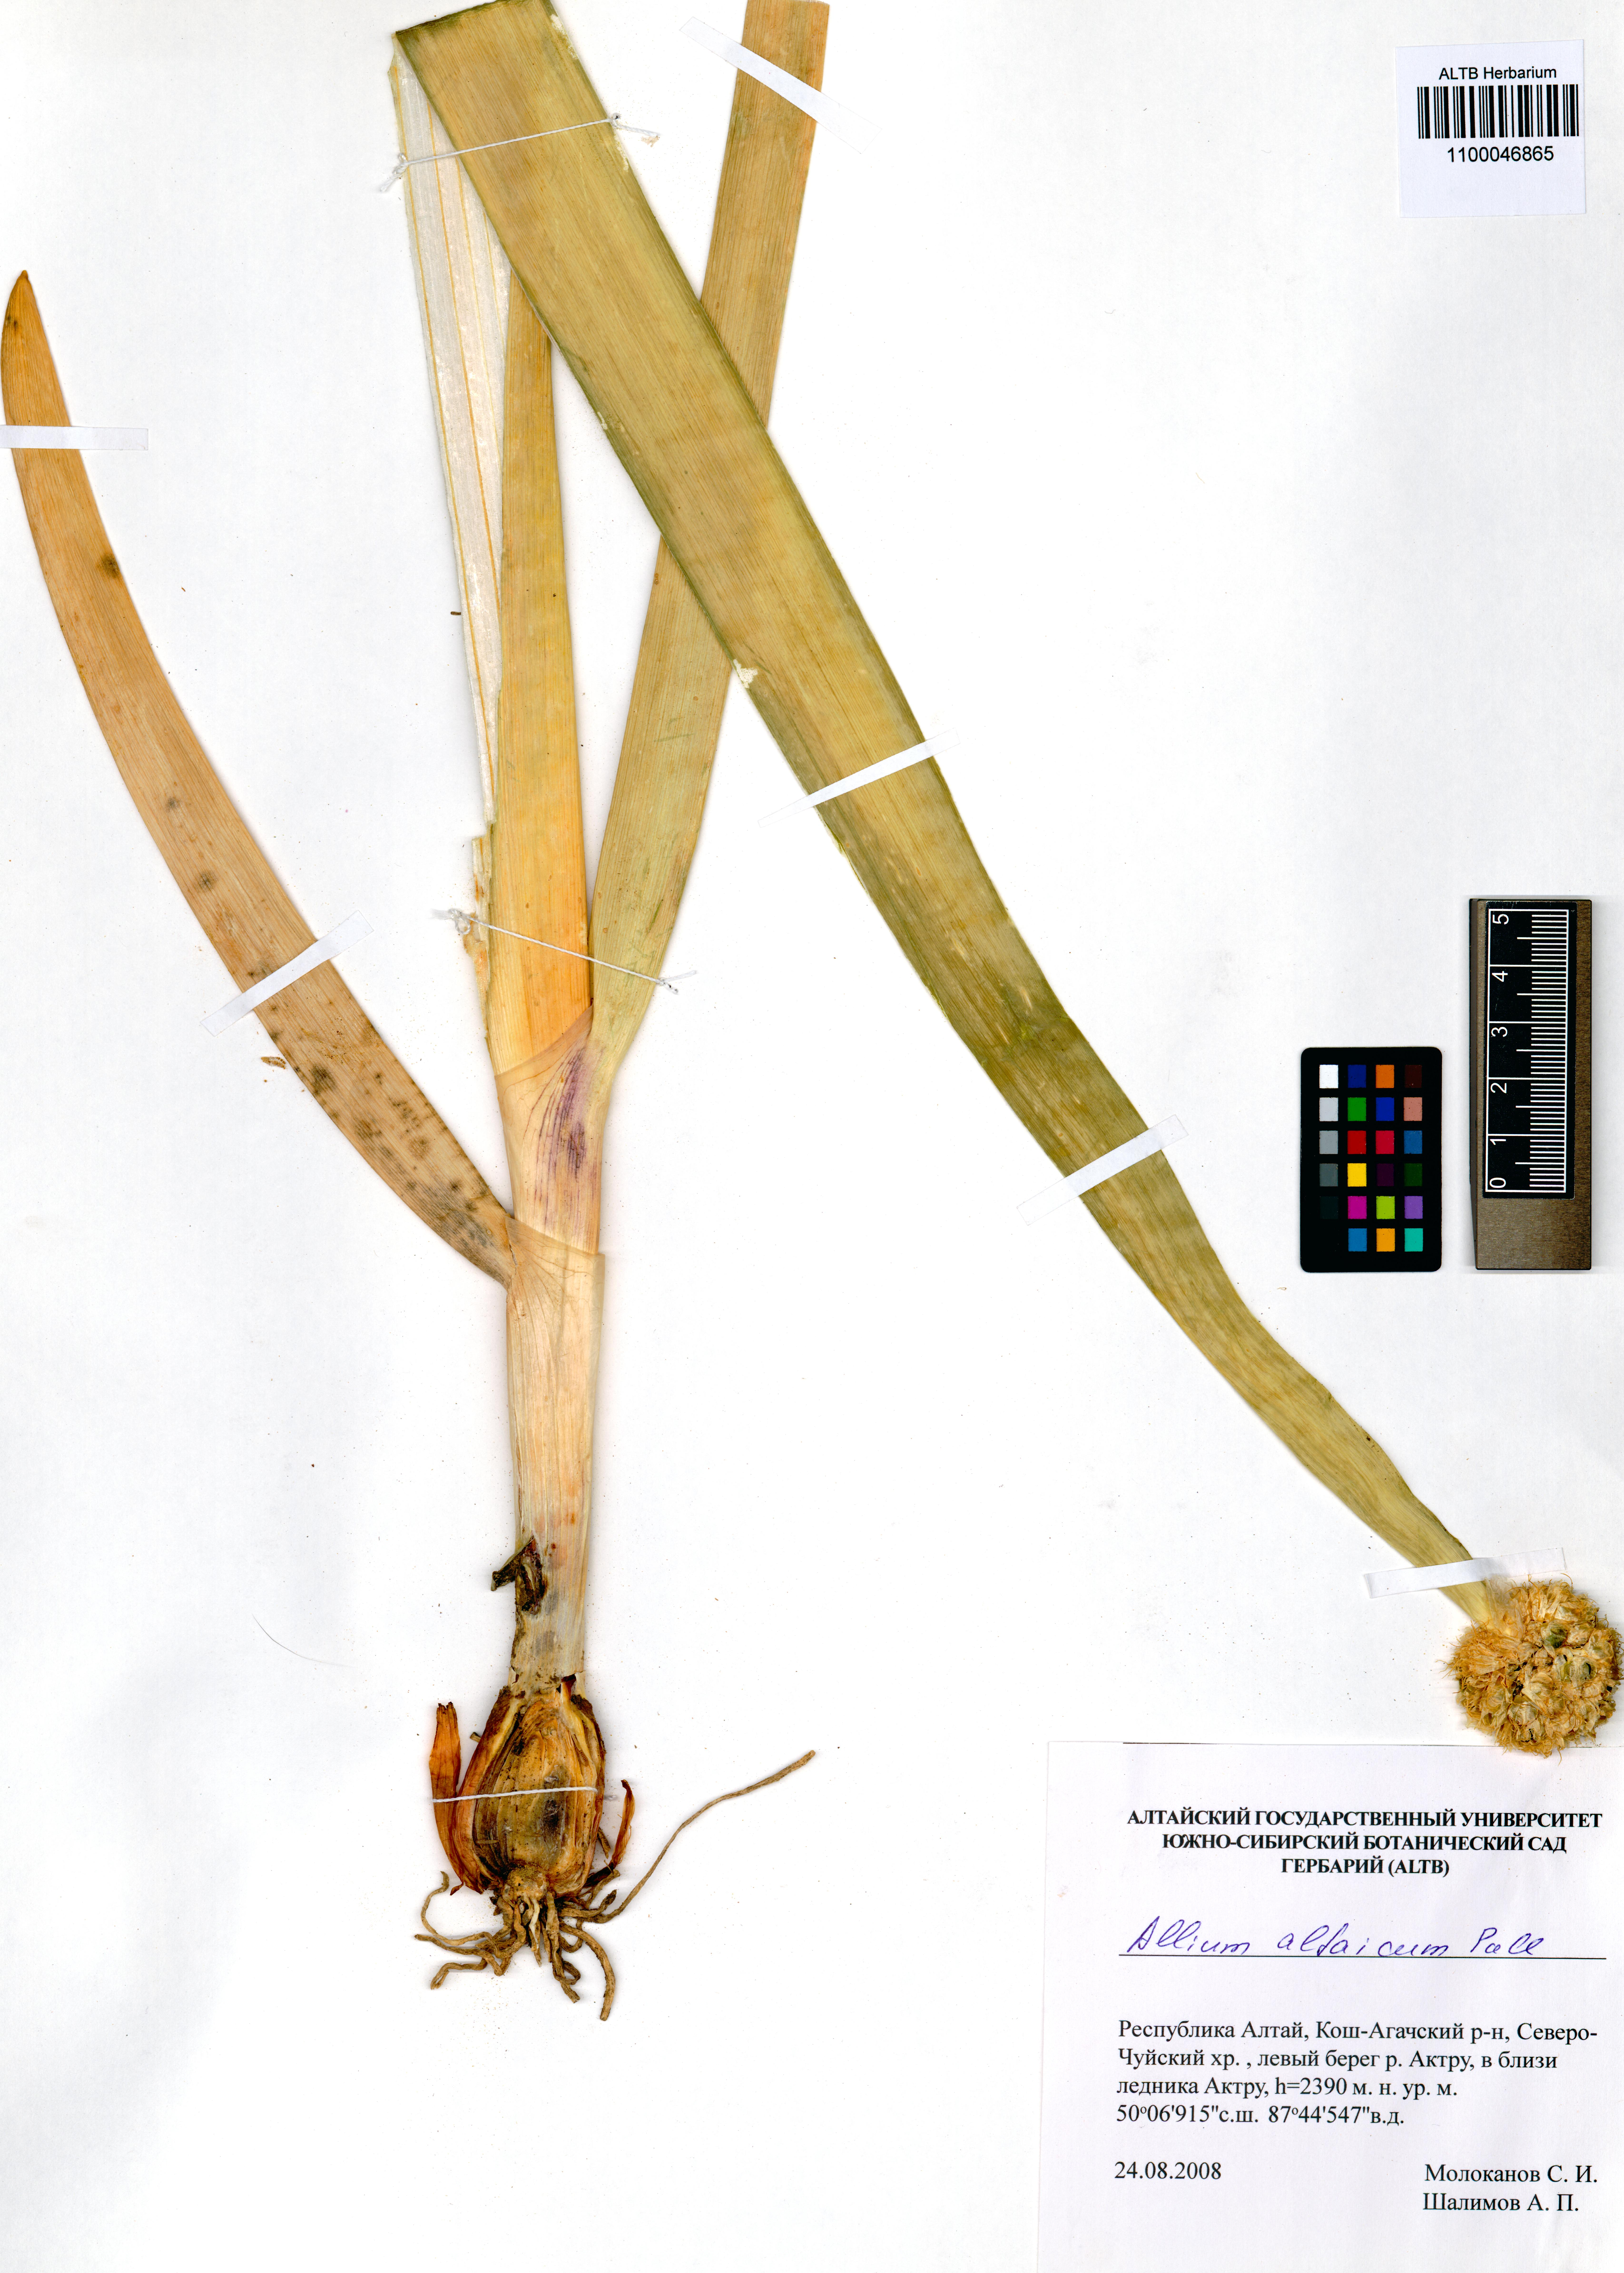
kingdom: Plantae
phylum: Tracheophyta
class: Liliopsida
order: Asparagales
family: Amaryllidaceae
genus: Allium
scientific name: Allium altaicum
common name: Altai onion
